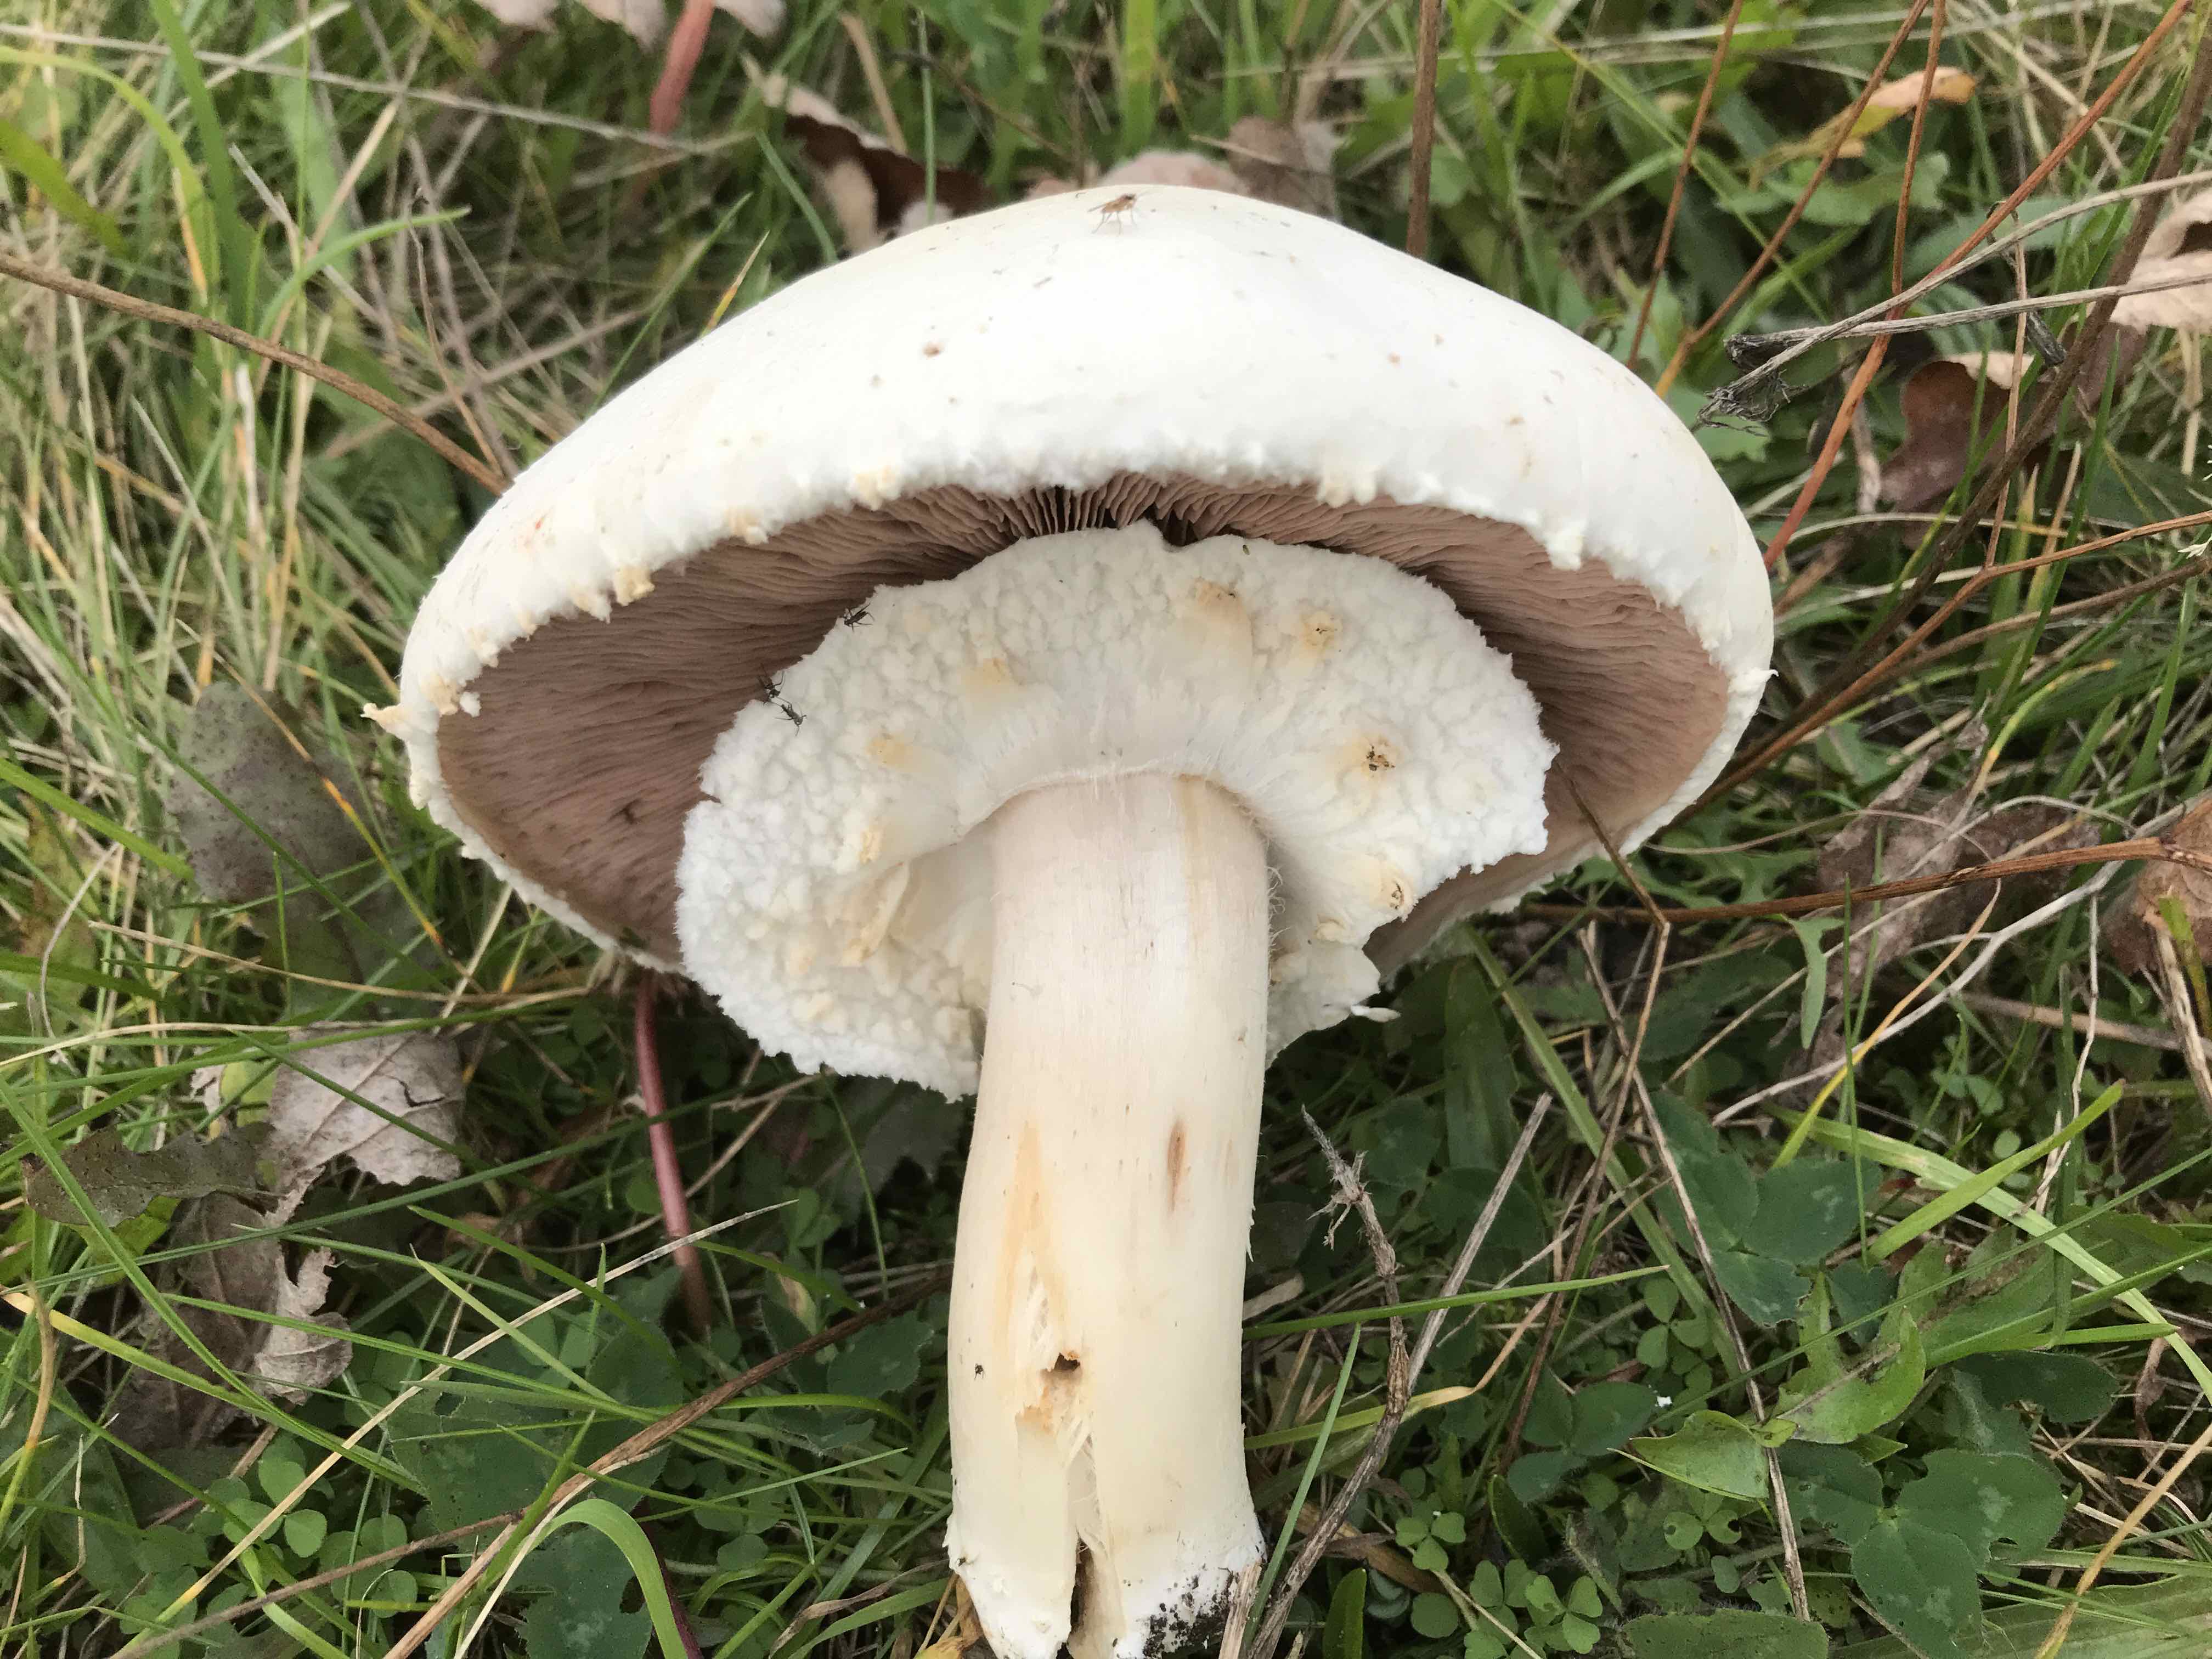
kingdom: Fungi
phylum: Basidiomycota
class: Agaricomycetes
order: Agaricales
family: Agaricaceae
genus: Agaricus
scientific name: Agaricus arvensis
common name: ager-champignon
